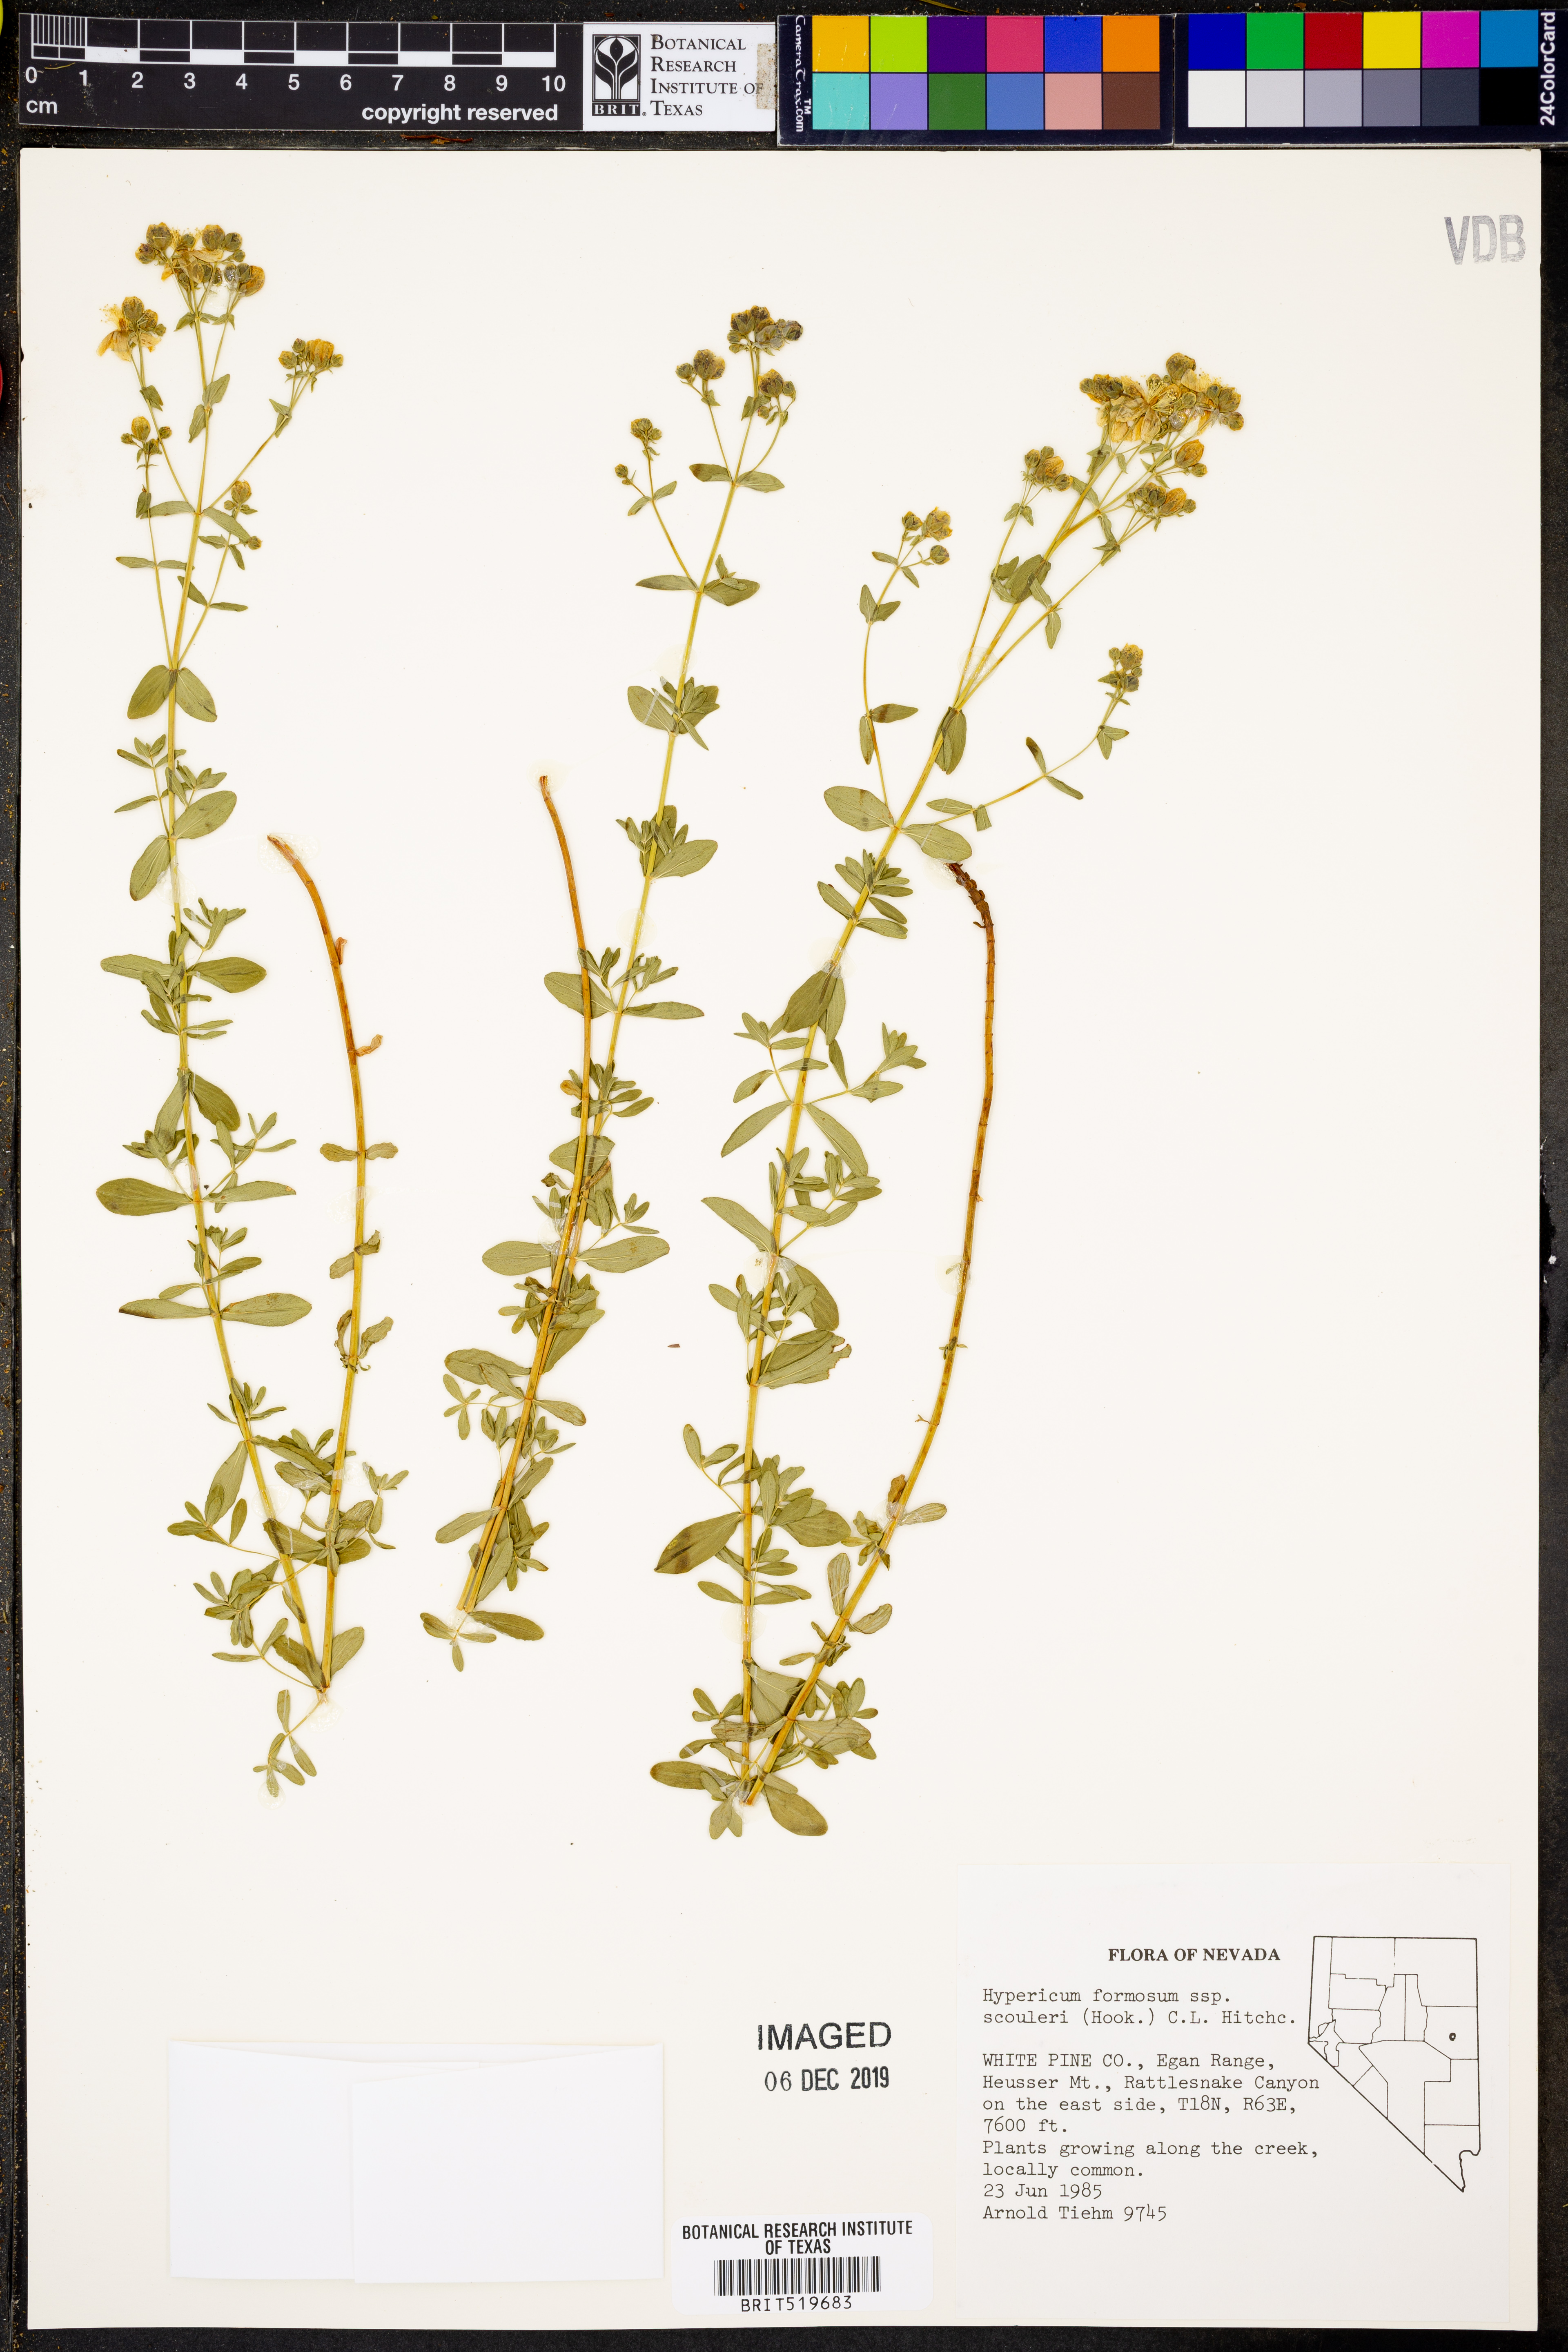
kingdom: Plantae
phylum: Tracheophyta
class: Magnoliopsida
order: Malpighiales
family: Hypericaceae
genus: Hypericum
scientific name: Hypericum scouleri
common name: Scouler's st. john's-wort
